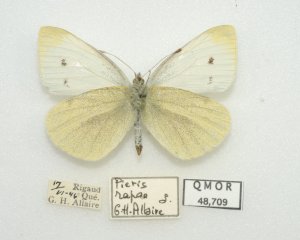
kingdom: Animalia
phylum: Arthropoda
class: Insecta
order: Lepidoptera
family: Pieridae
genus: Pieris
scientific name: Pieris rapae
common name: Cabbage White
